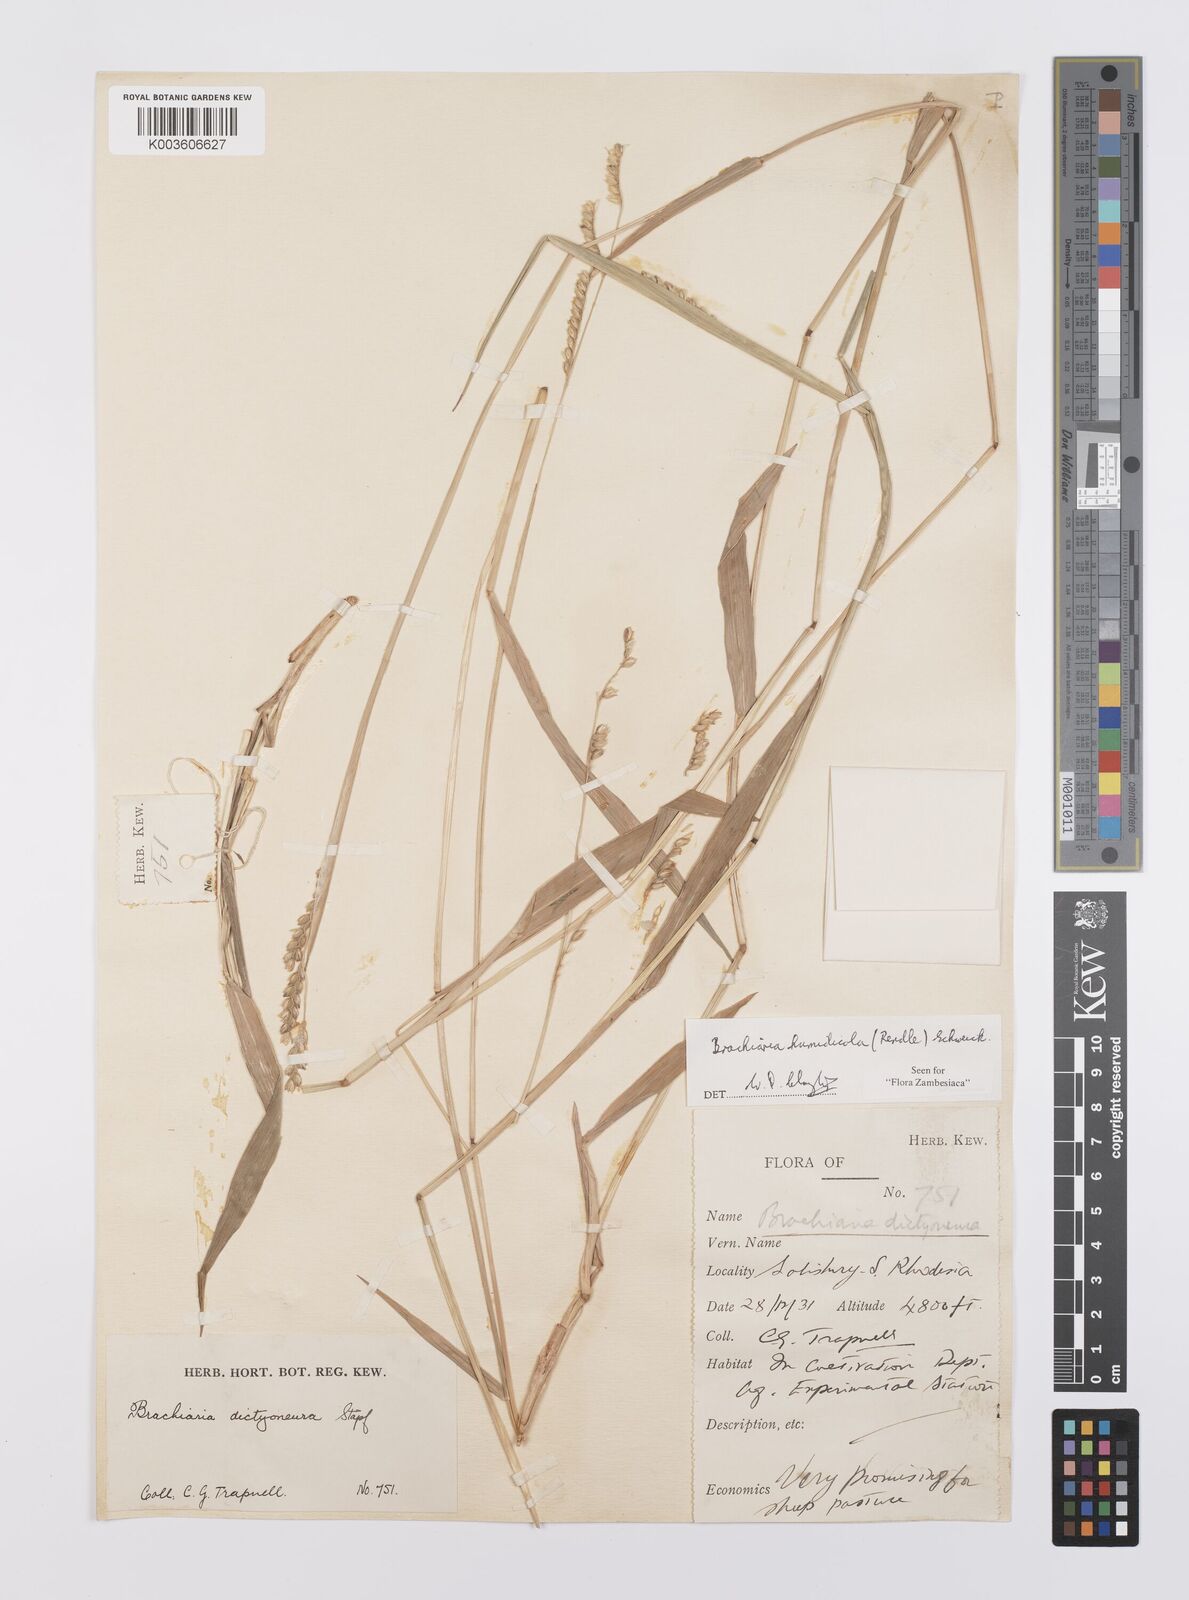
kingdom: Plantae
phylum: Tracheophyta
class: Liliopsida
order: Poales
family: Poaceae
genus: Urochloa
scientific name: Urochloa dictyoneura
